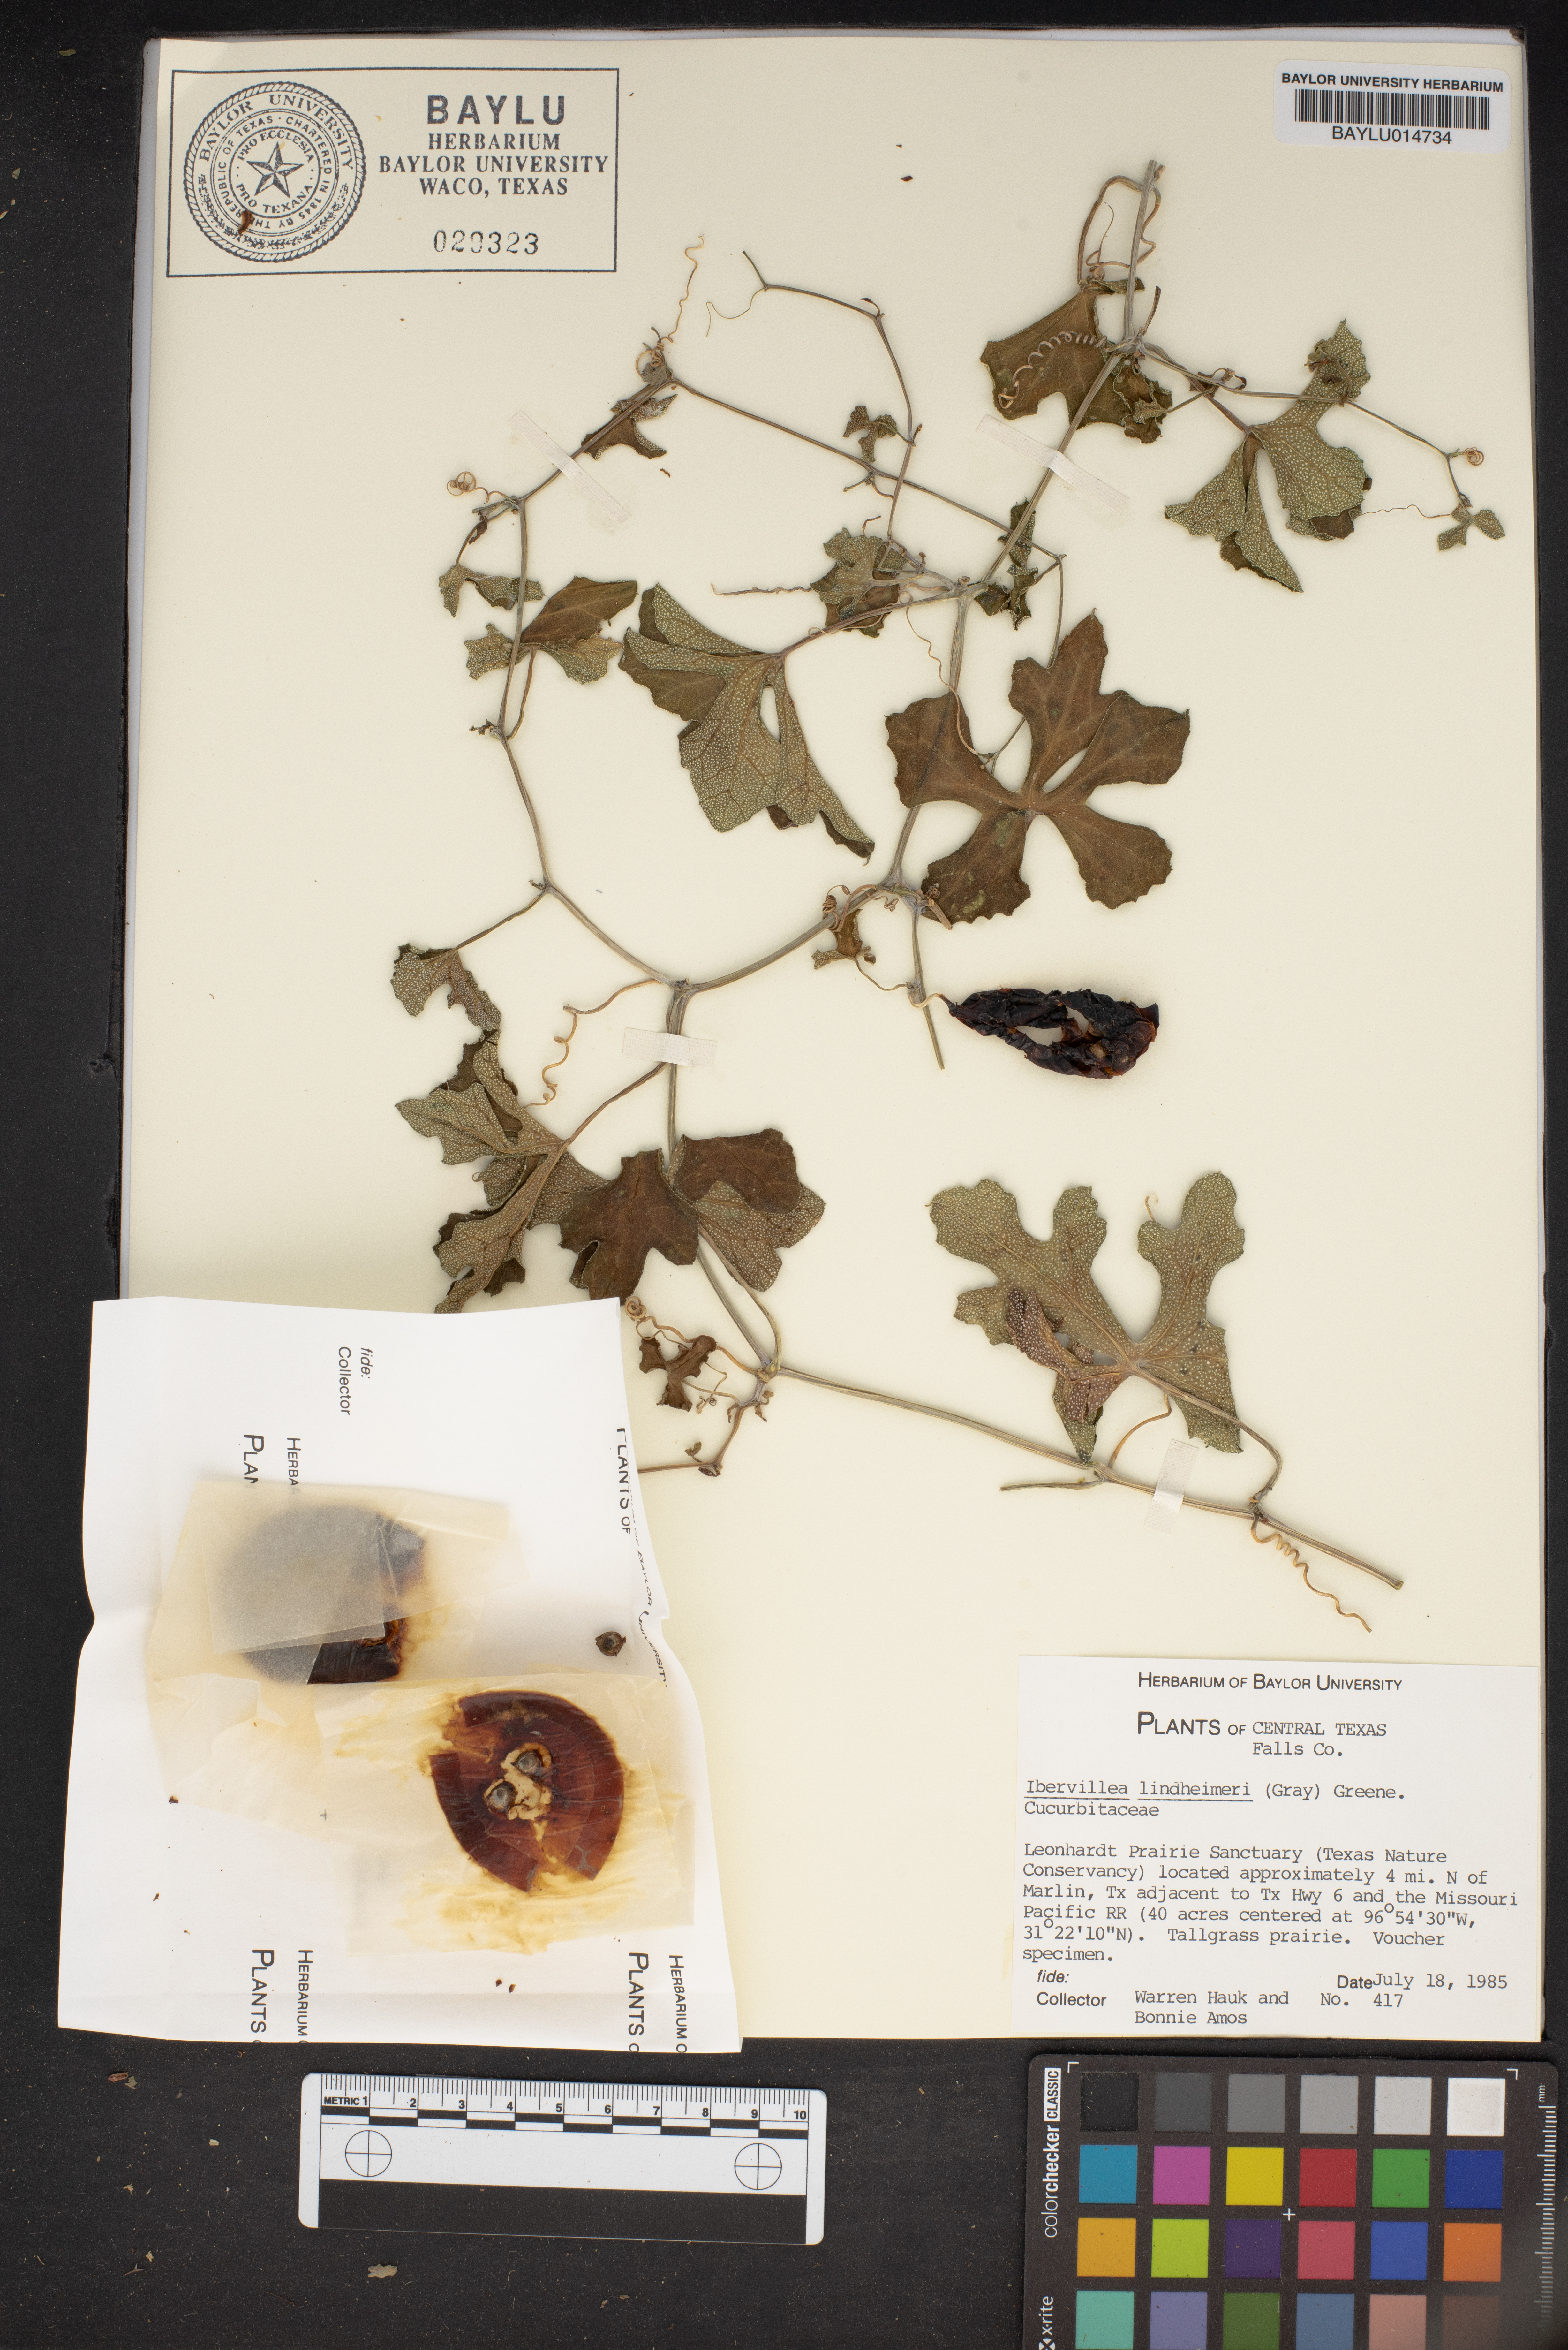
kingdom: Plantae
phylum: Tracheophyta
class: Magnoliopsida
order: Cucurbitales
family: Cucurbitaceae
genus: Ibervillea
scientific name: Ibervillea lindheimeri
